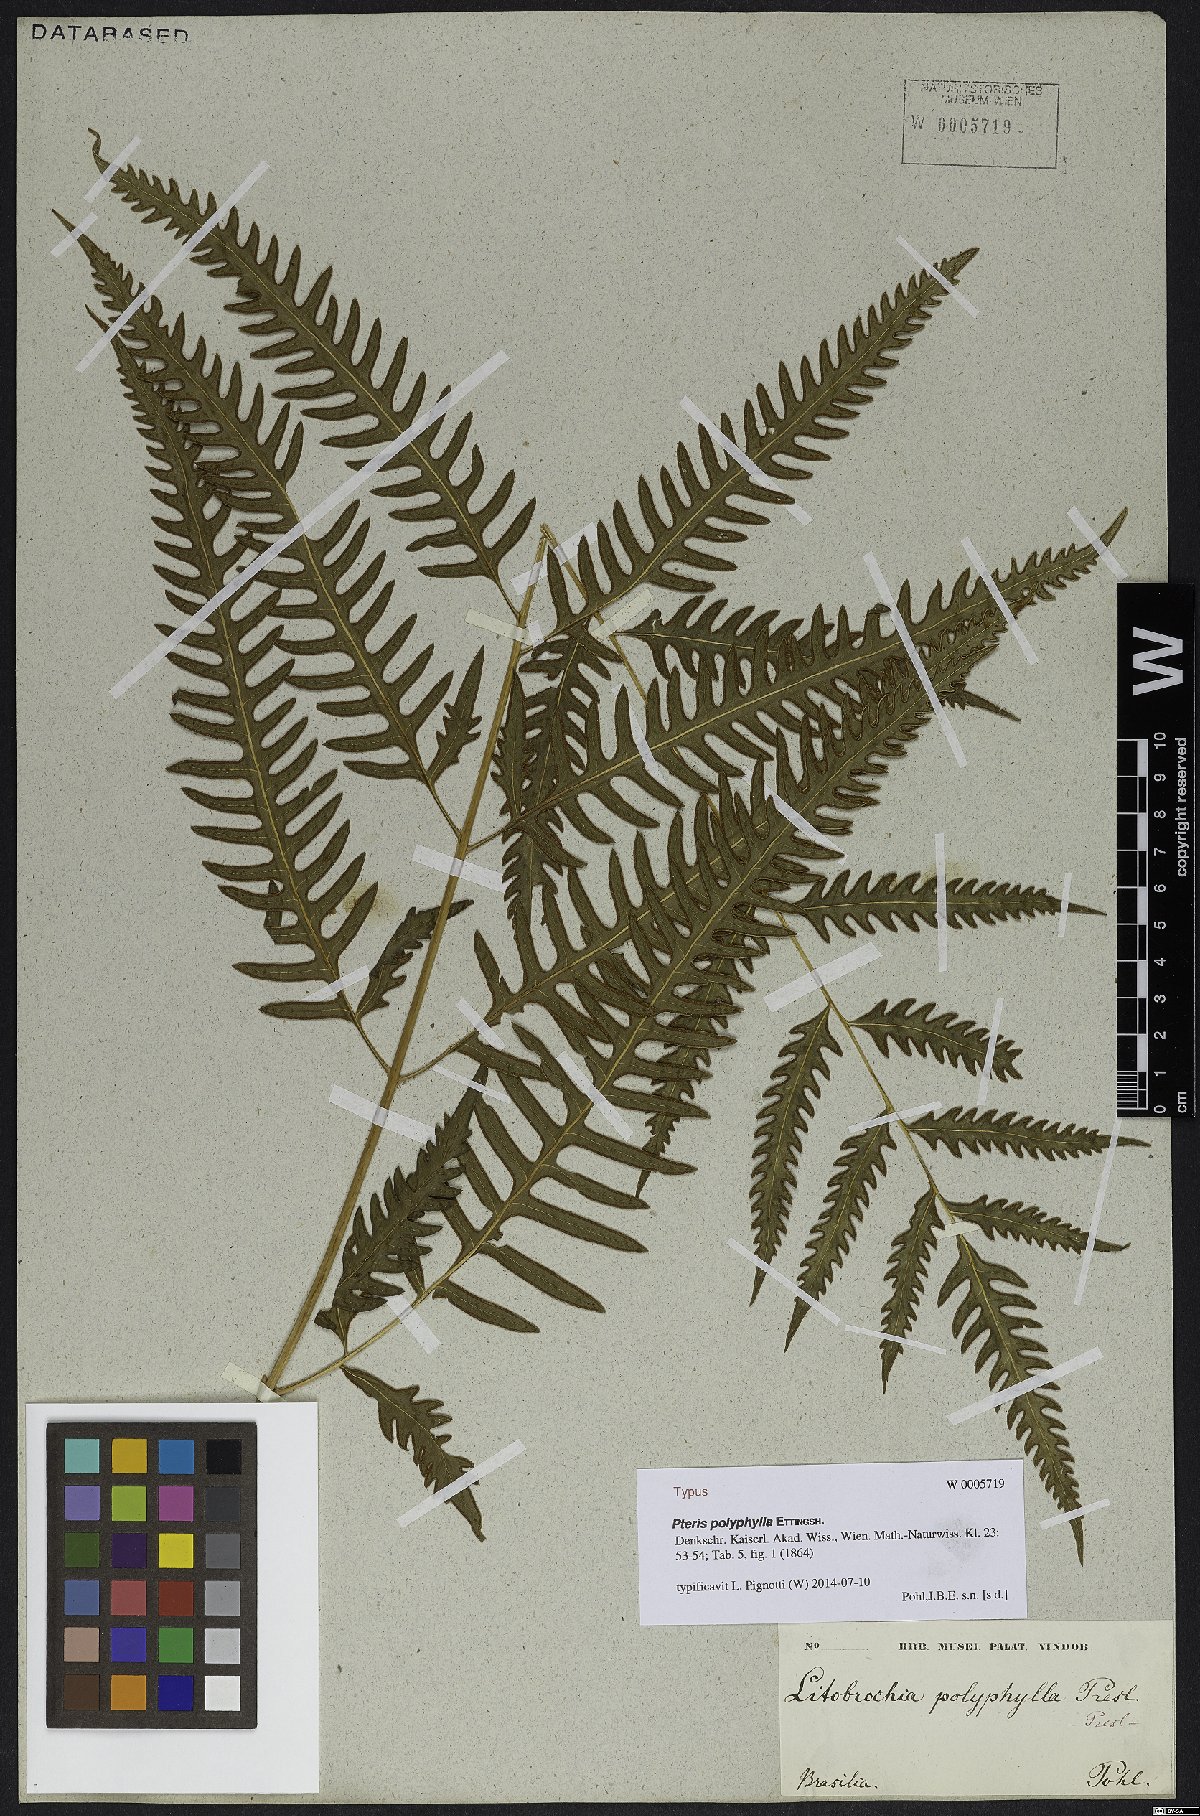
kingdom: Plantae
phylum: Tracheophyta
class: Polypodiopsida
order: Polypodiales
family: Pteridaceae
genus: Pteris
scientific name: Pteris polyphylla
